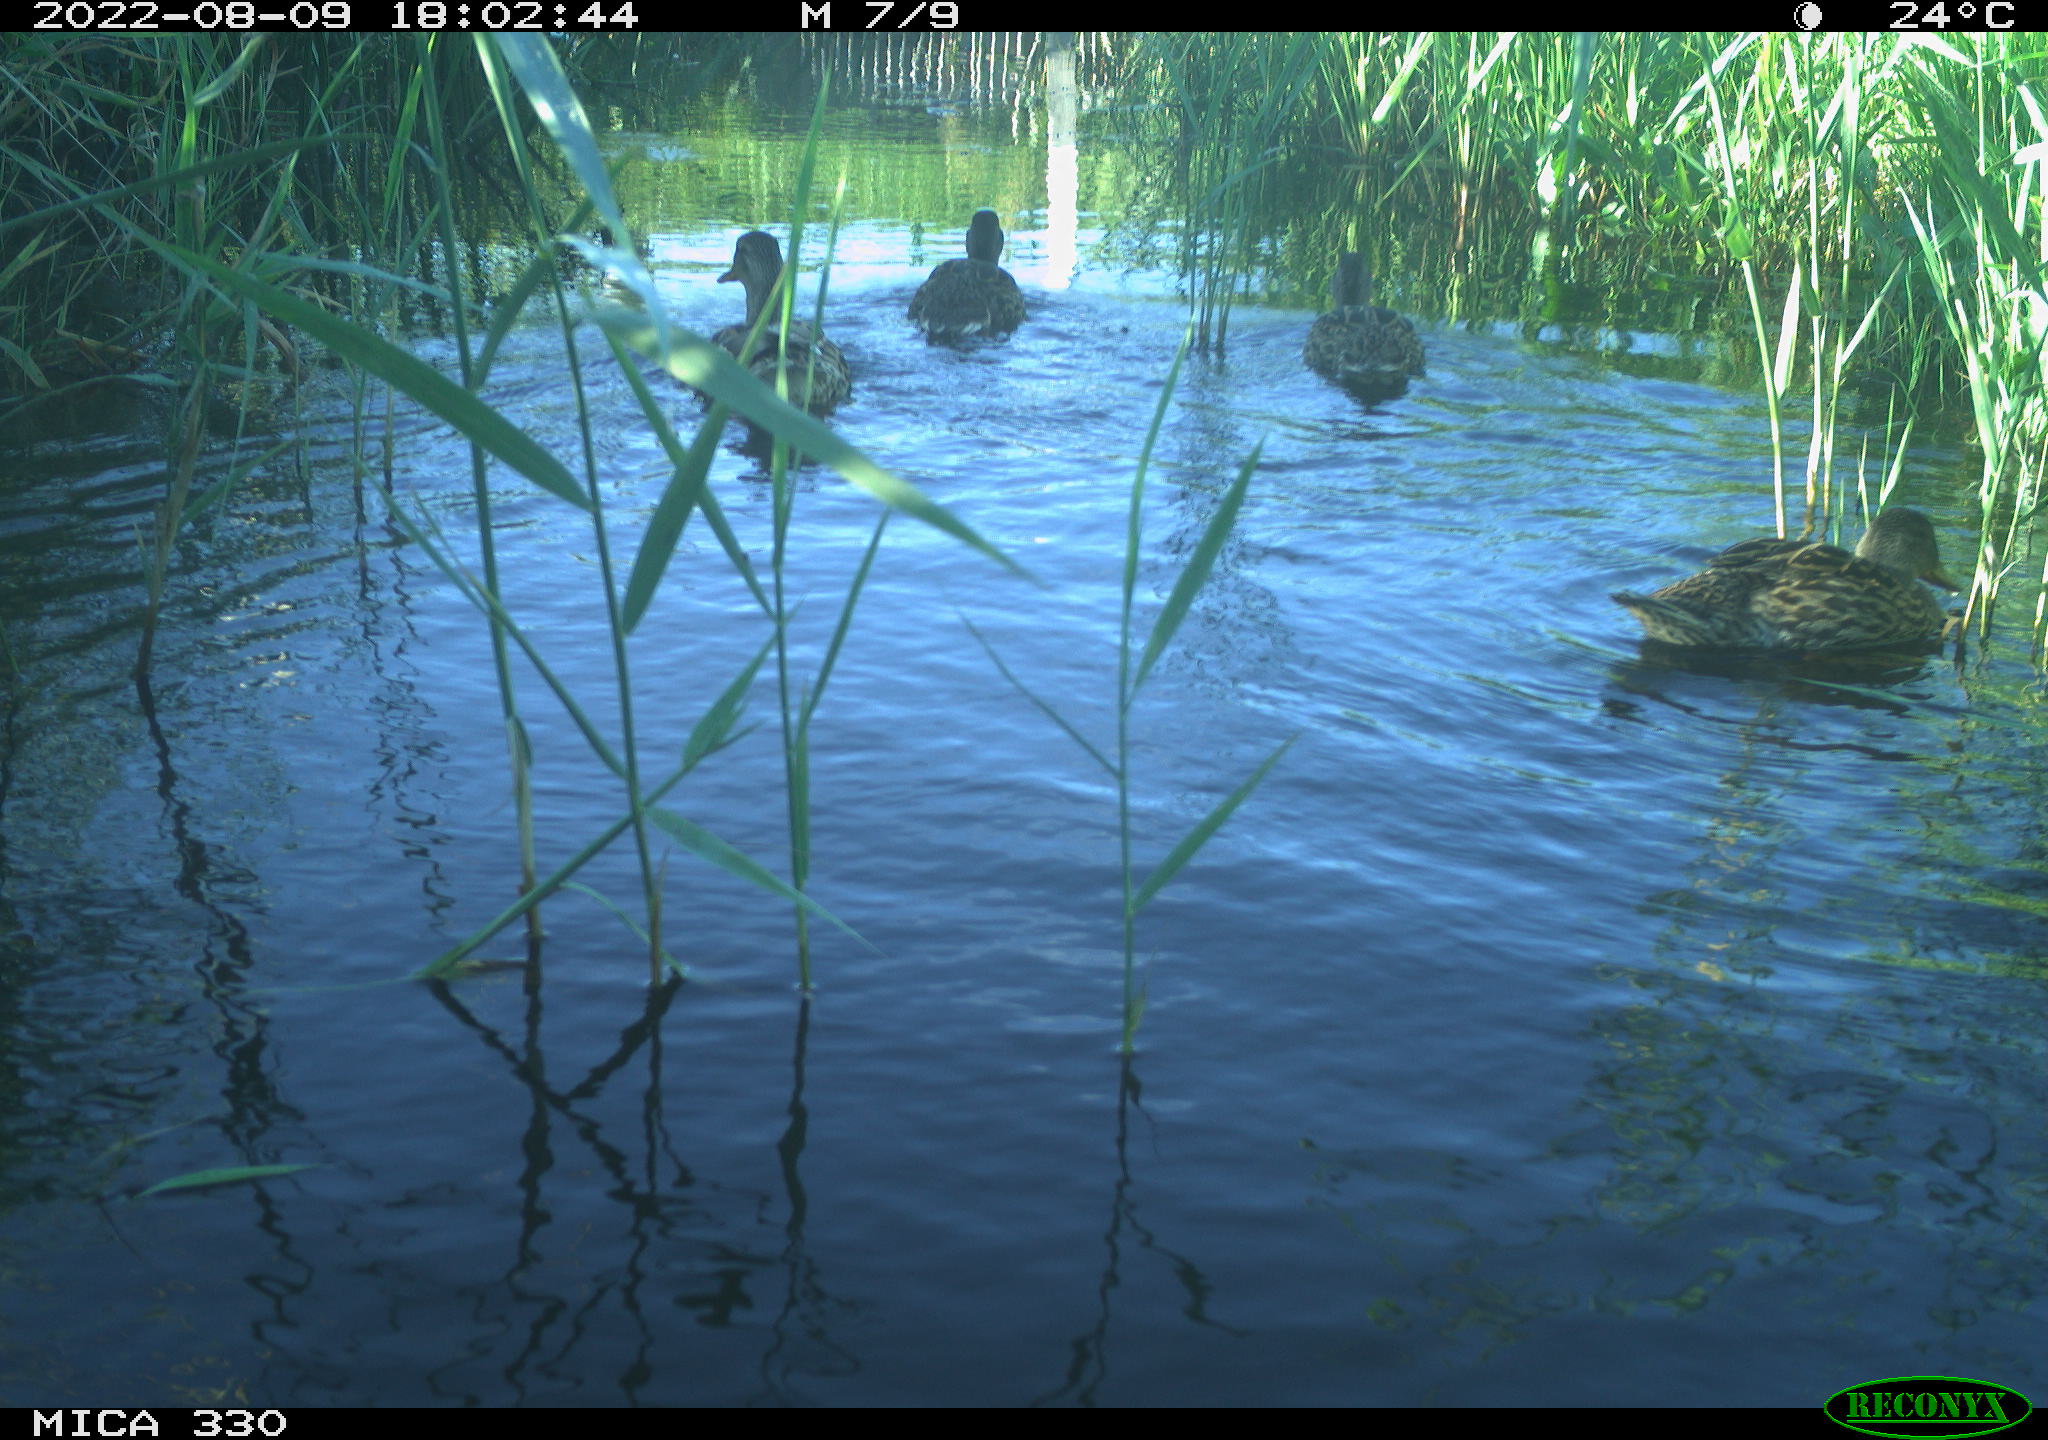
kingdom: Animalia
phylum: Chordata
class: Aves
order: Anseriformes
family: Anatidae
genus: Mareca
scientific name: Mareca strepera
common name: Gadwall
